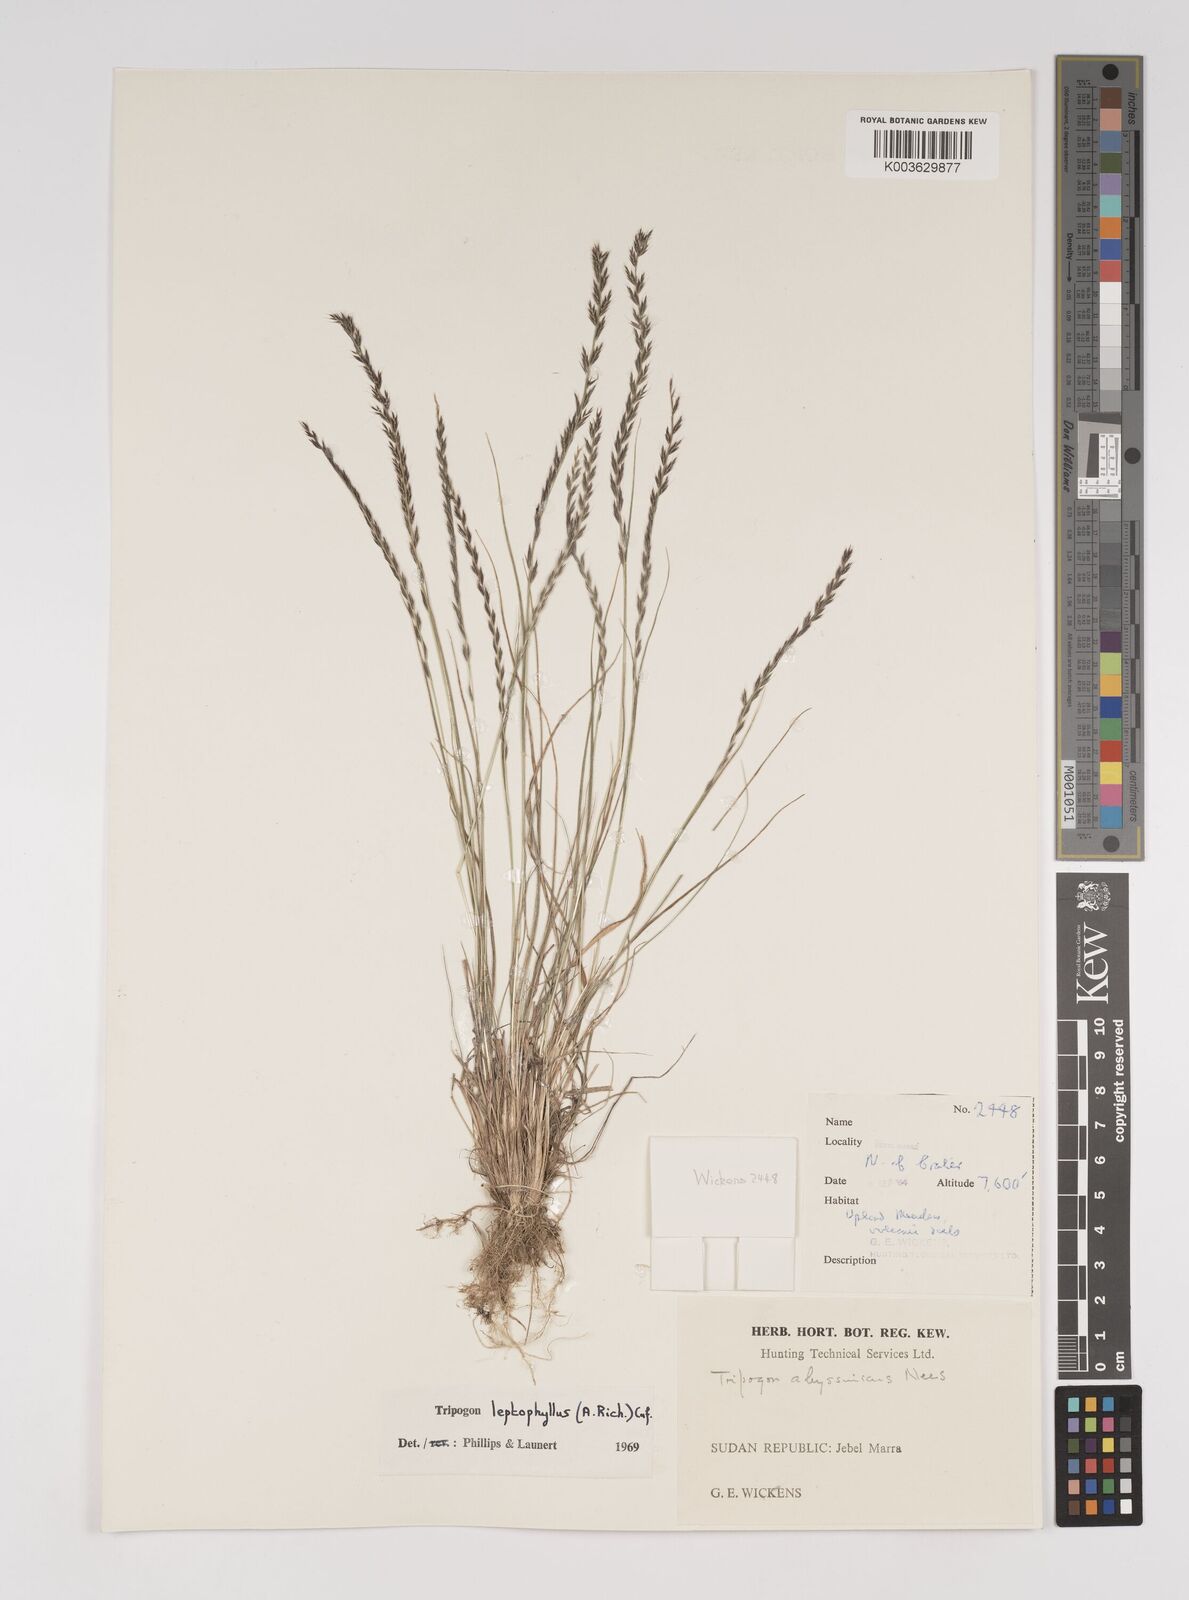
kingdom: Plantae
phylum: Tracheophyta
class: Liliopsida
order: Poales
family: Poaceae
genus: Tripogon
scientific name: Tripogon leptophyllus
